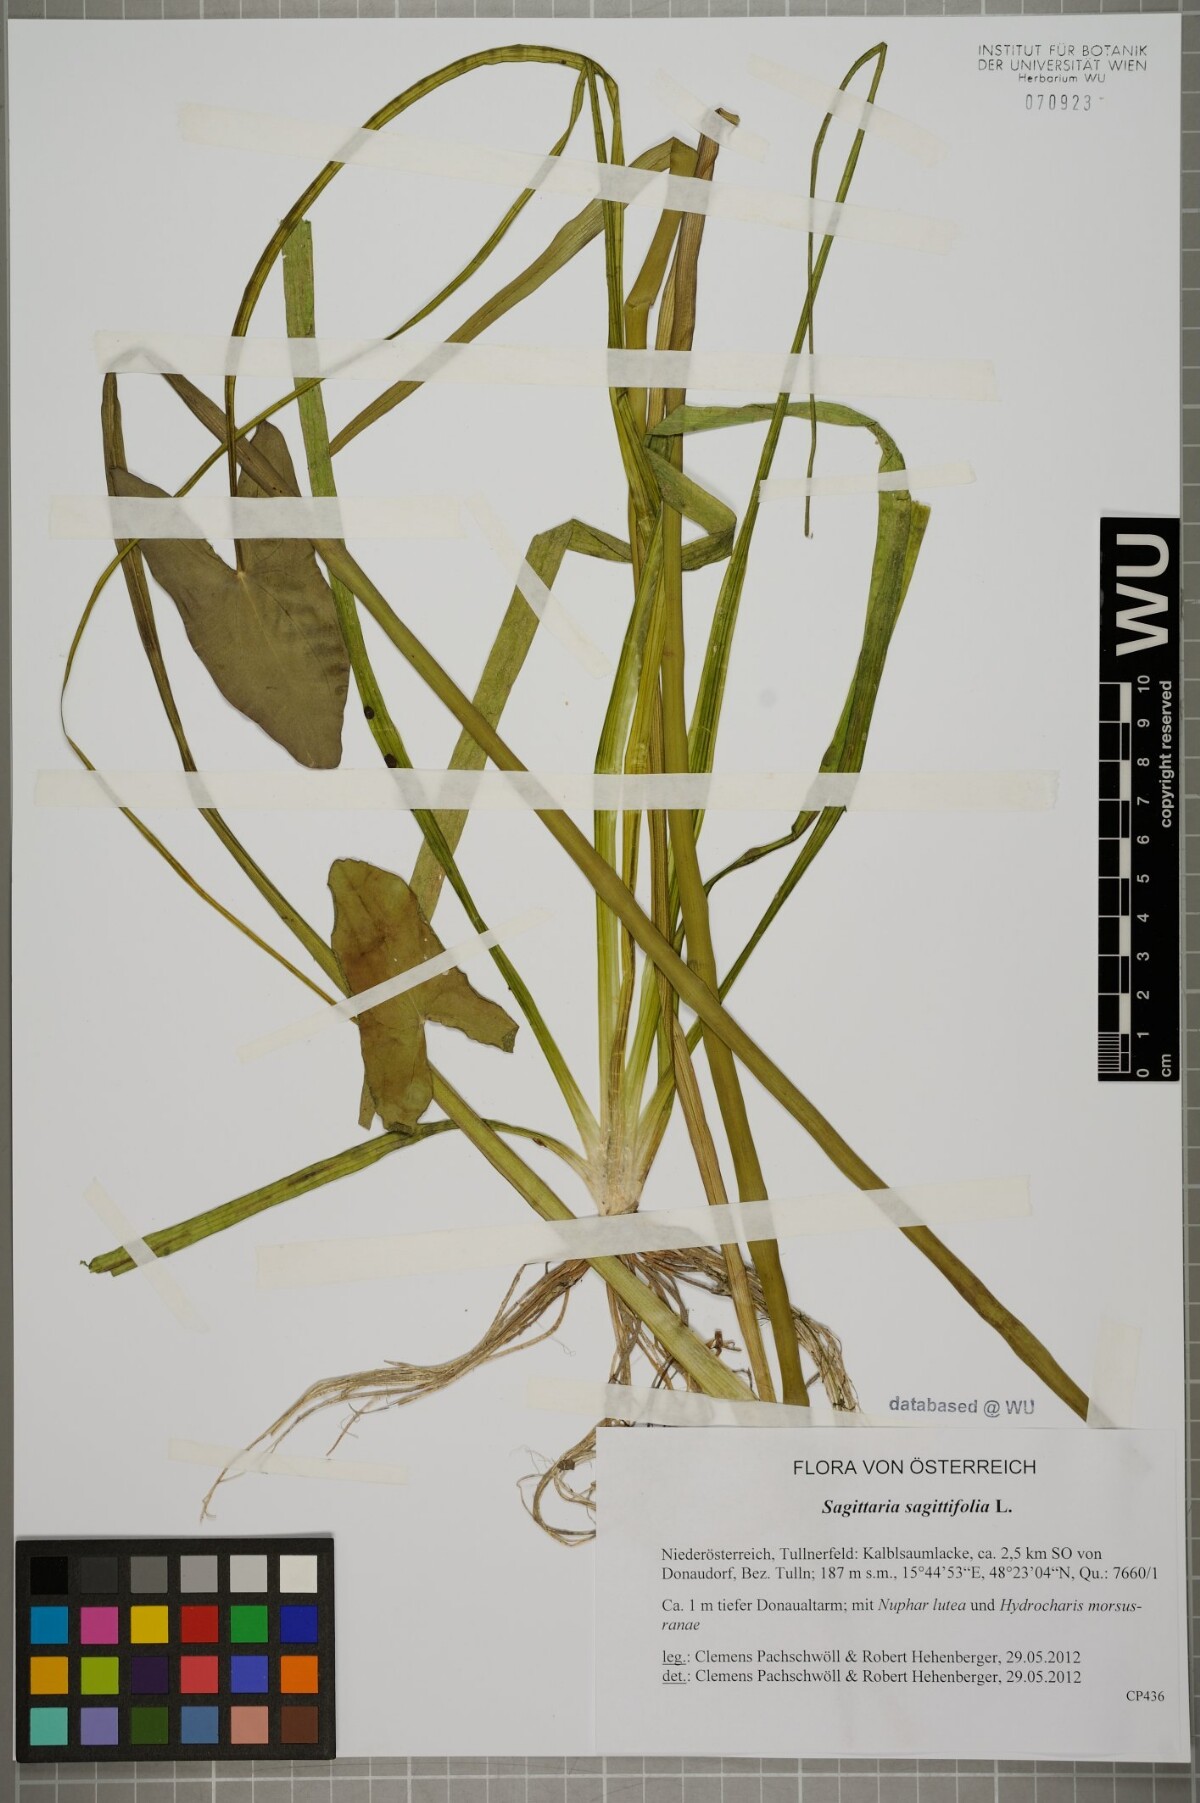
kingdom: Plantae
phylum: Tracheophyta
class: Liliopsida
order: Alismatales
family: Alismataceae
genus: Sagittaria
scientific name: Sagittaria sagittifolia
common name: Arrowhead
